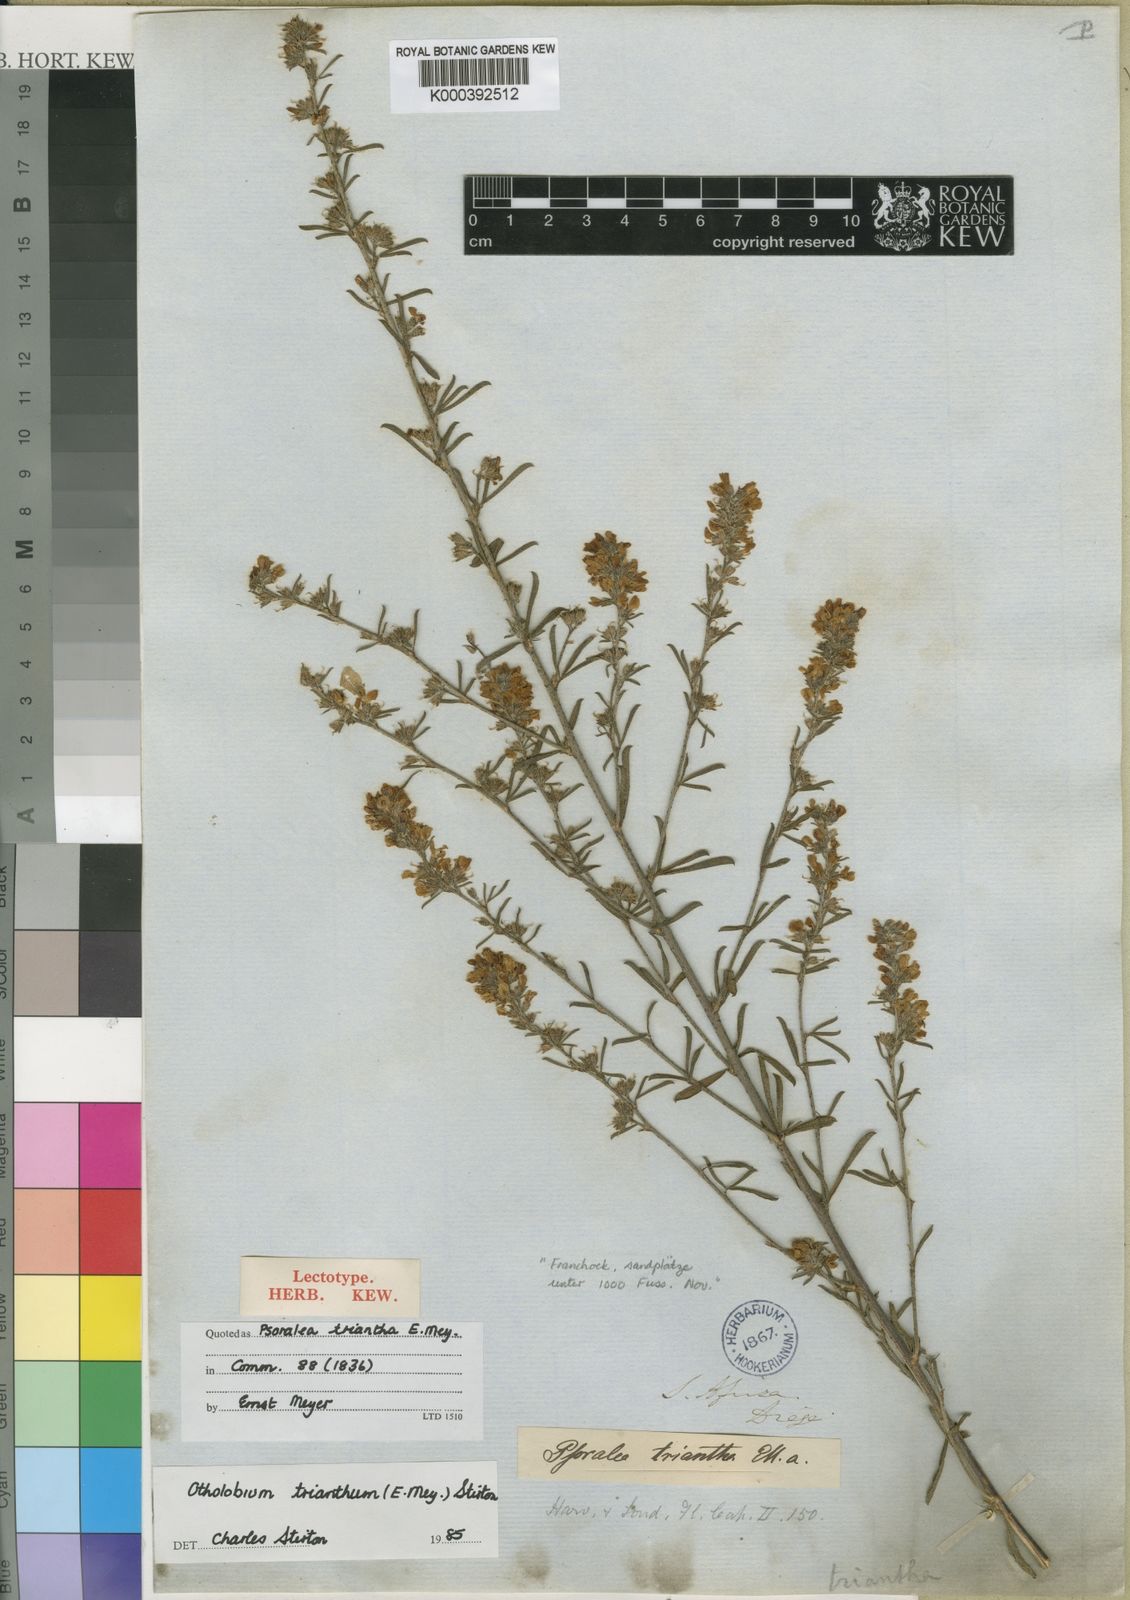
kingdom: Plantae
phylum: Tracheophyta
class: Magnoliopsida
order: Fabales
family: Fabaceae
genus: Psoralea
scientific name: Psoralea triantha
